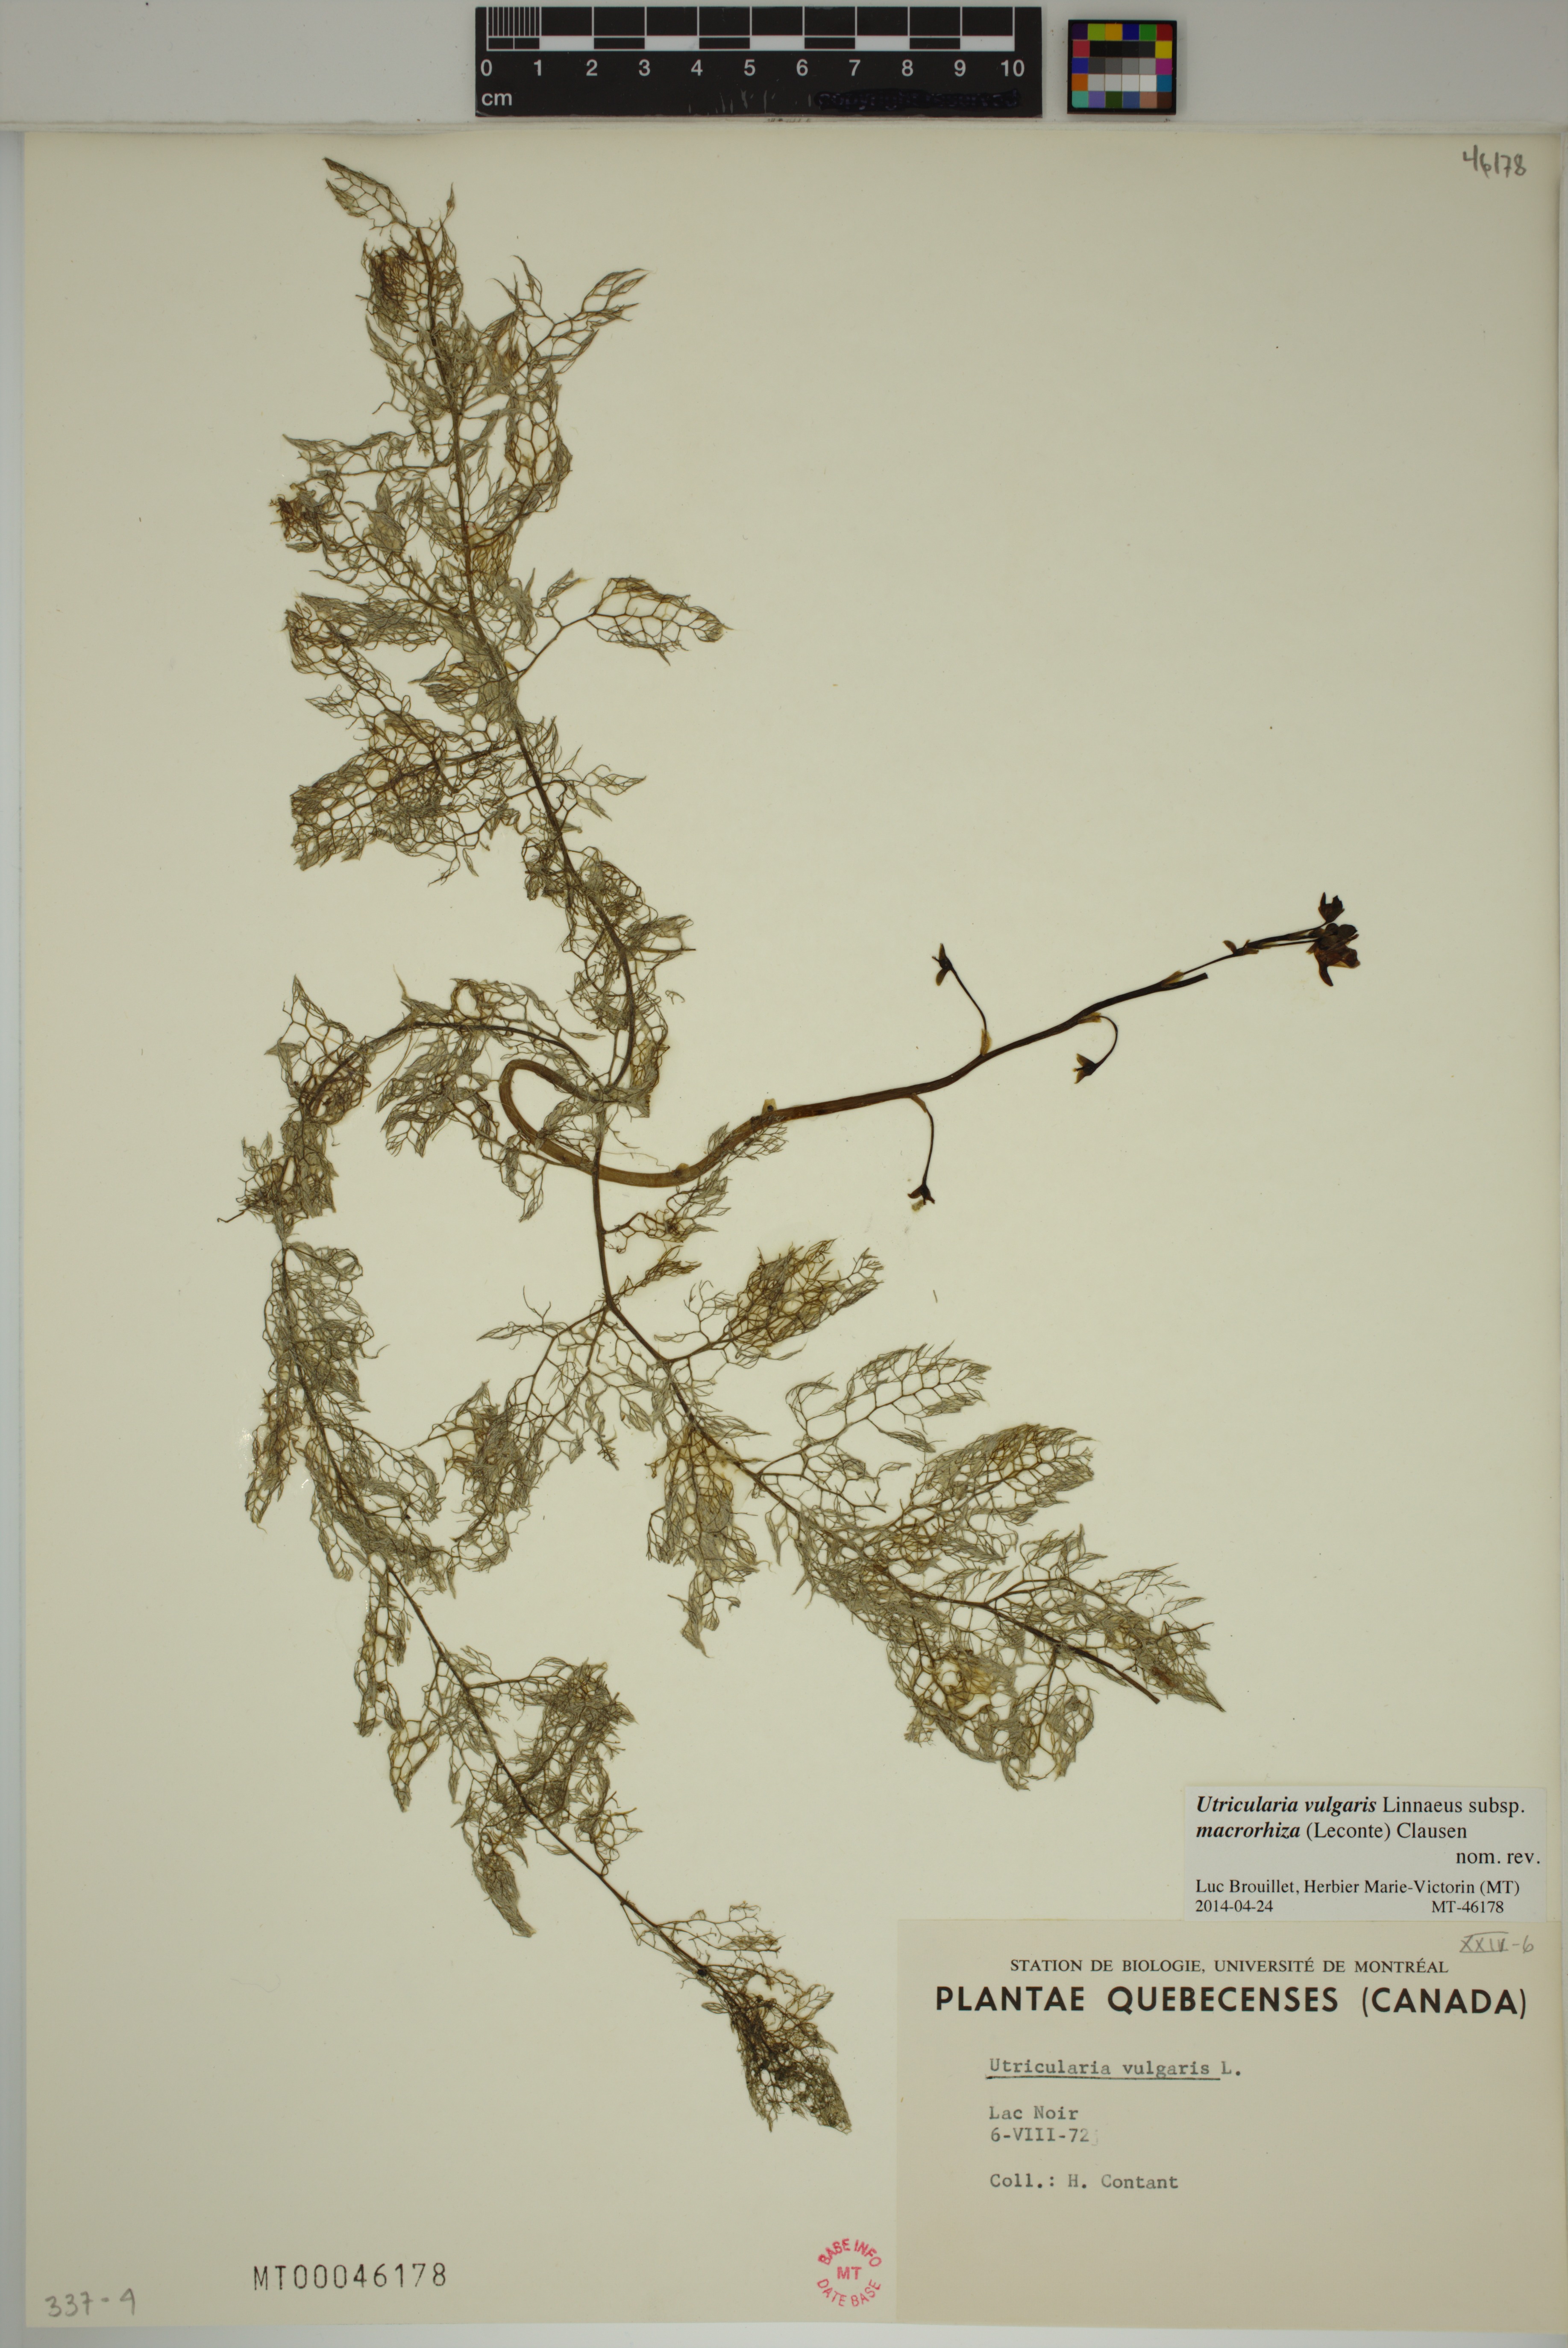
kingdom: Plantae
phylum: Tracheophyta
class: Magnoliopsida
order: Lamiales
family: Lentibulariaceae
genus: Utricularia
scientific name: Utricularia macrorhiza
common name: Common bladderwort
